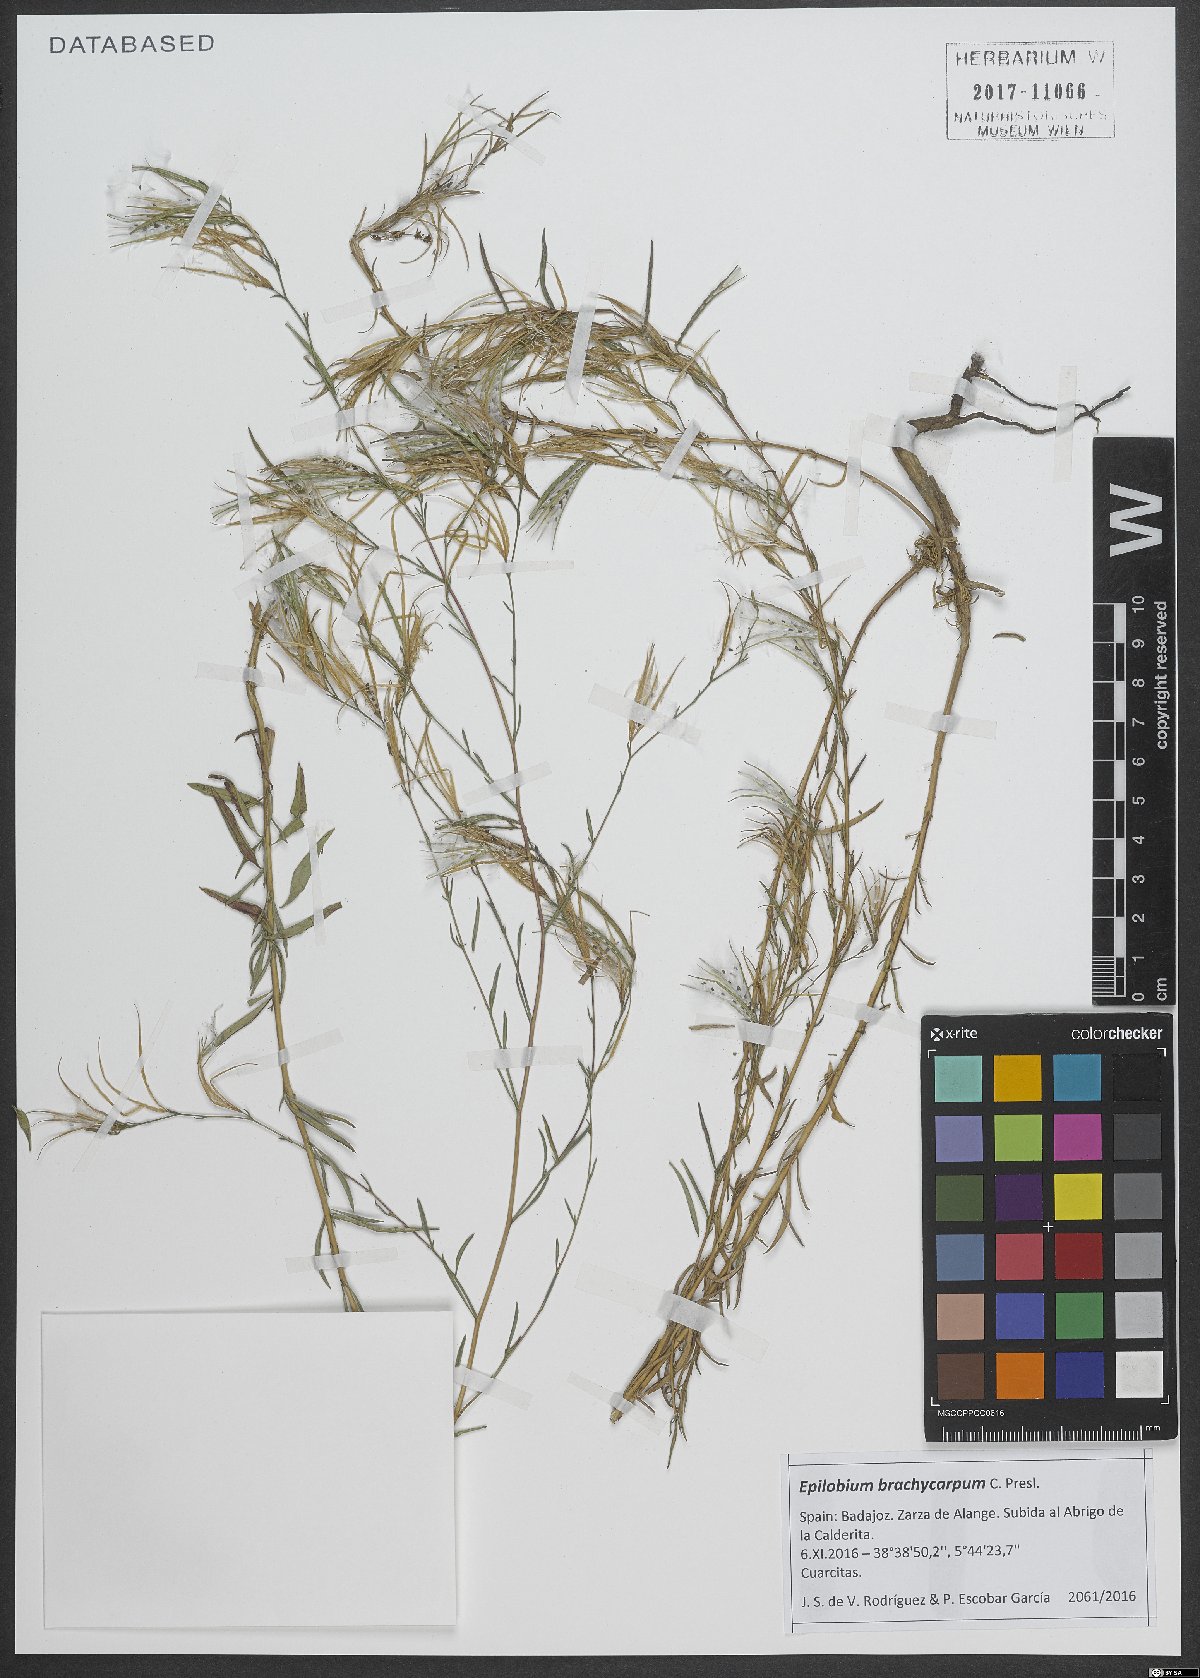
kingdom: Plantae
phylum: Tracheophyta
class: Magnoliopsida
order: Myrtales
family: Onagraceae
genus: Epilobium
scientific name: Epilobium brachycarpum
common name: Annual willowherb
